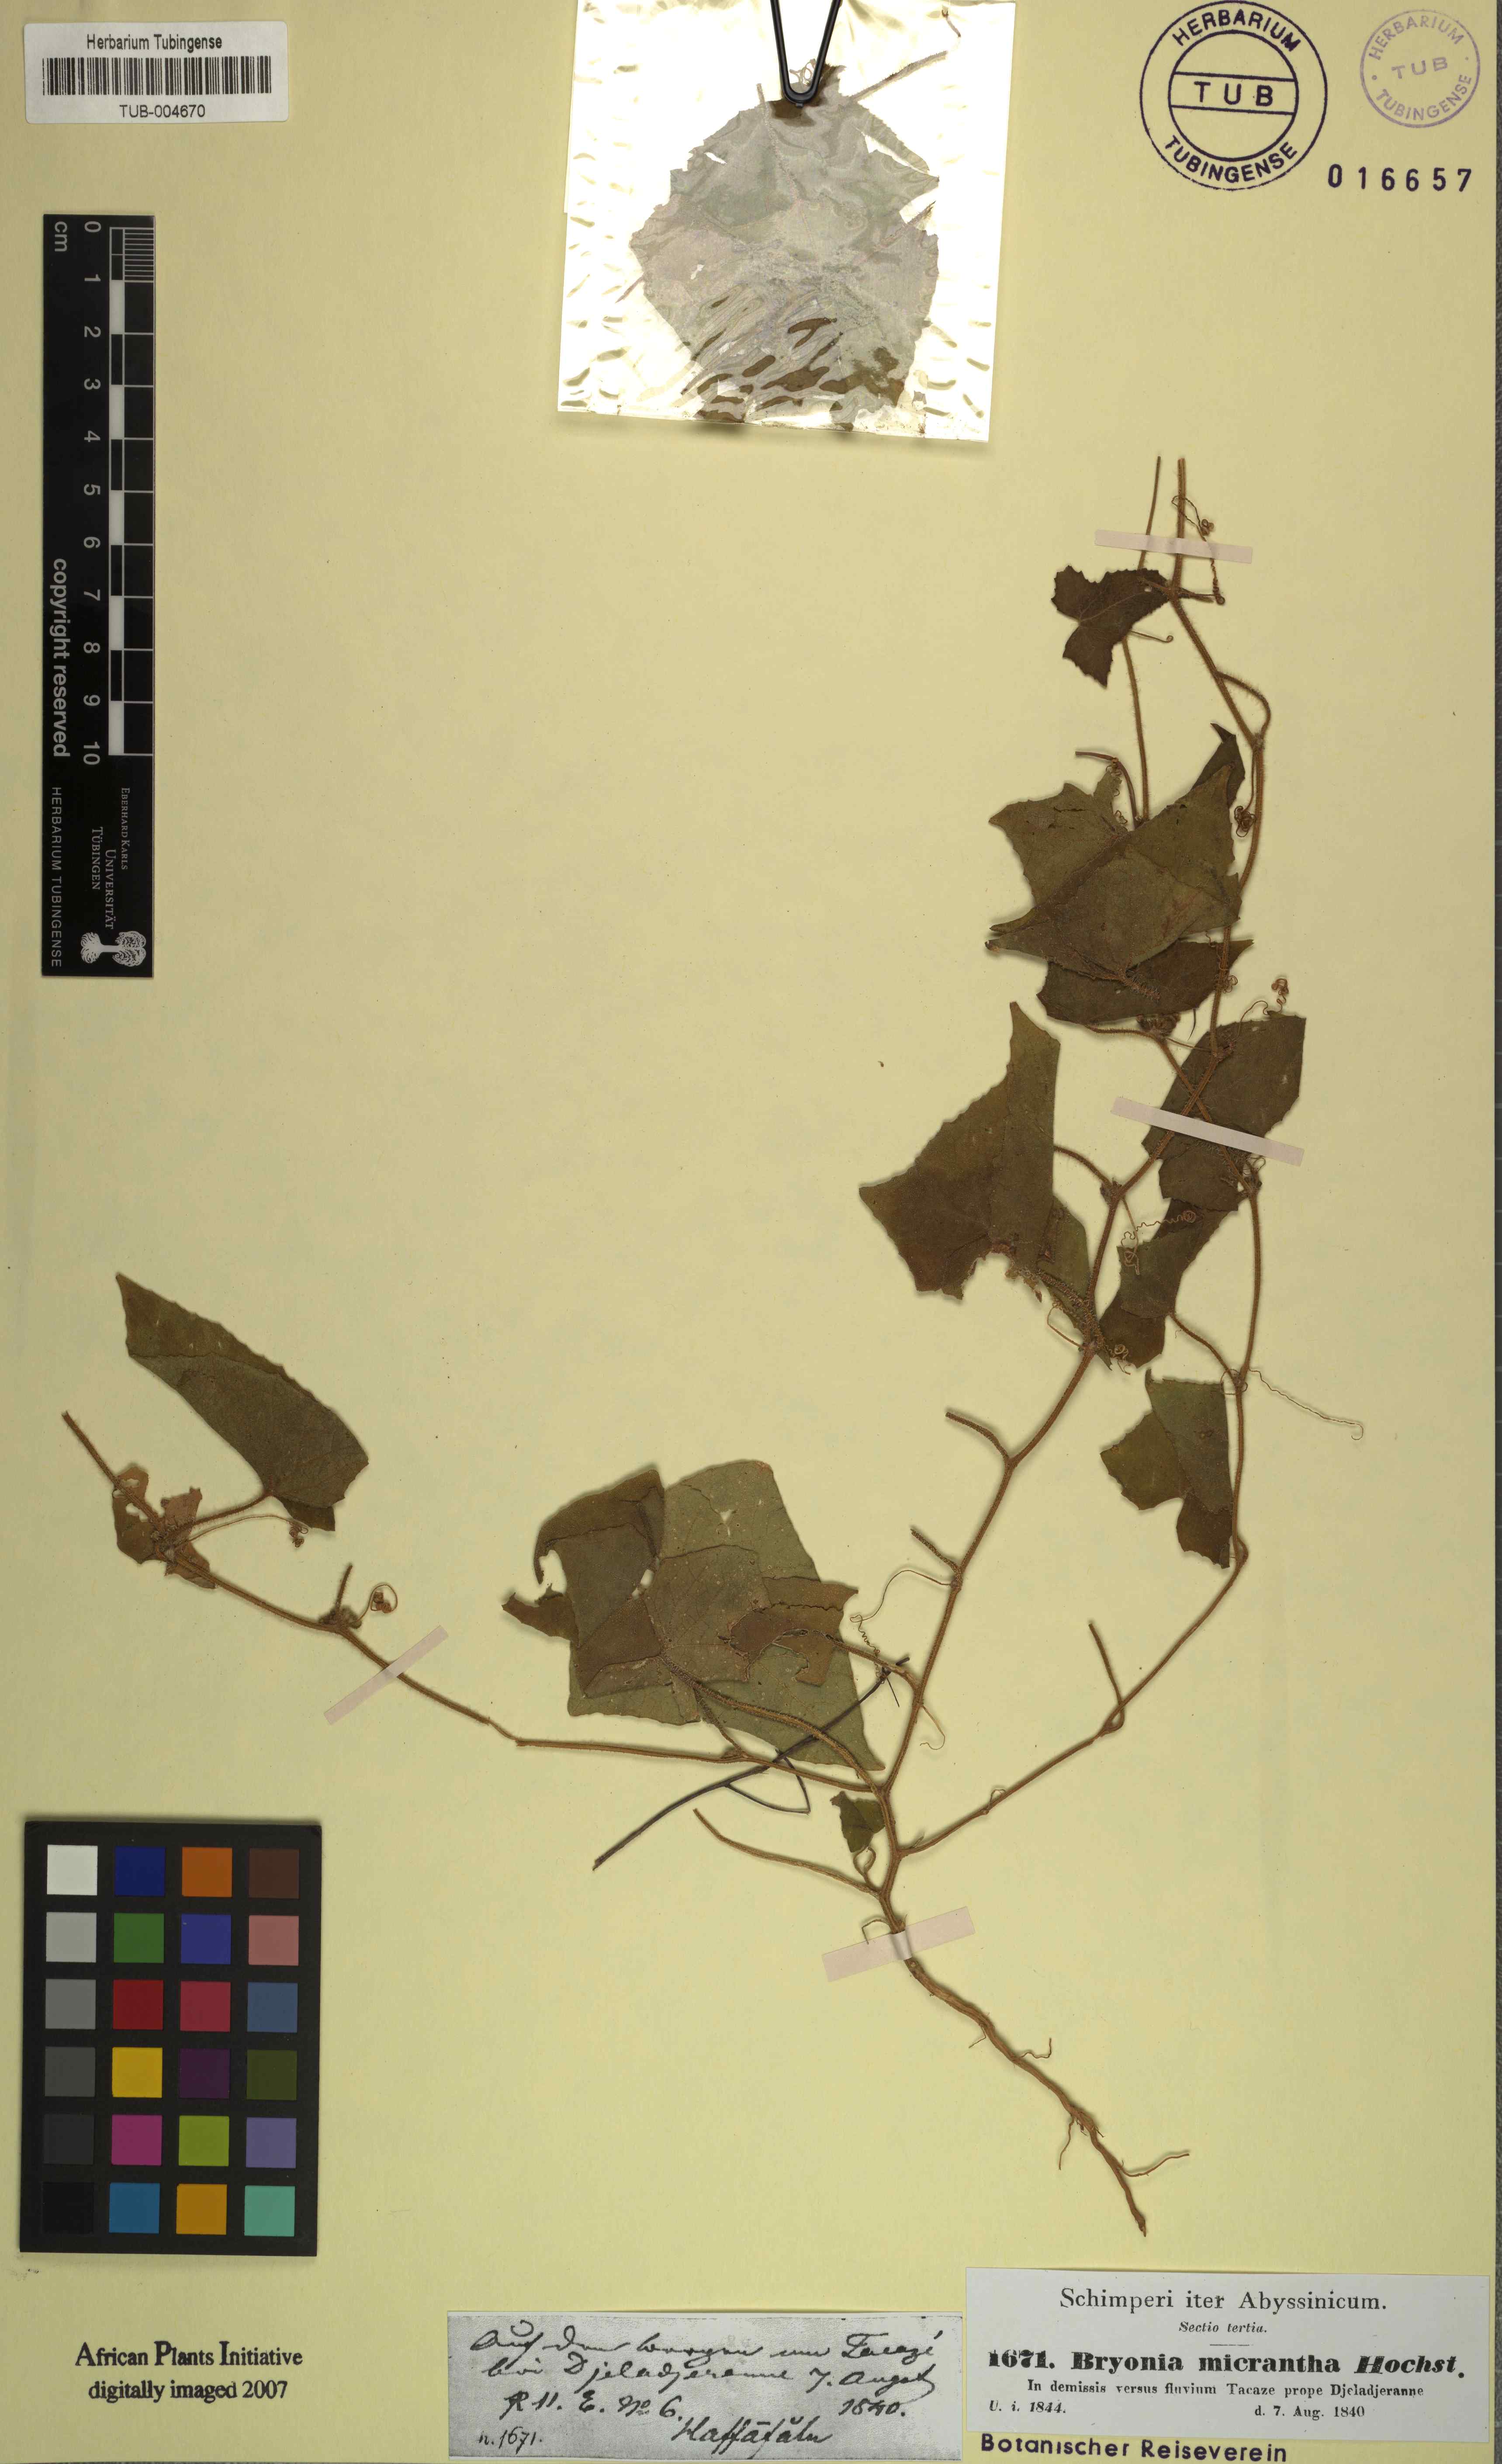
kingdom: Plantae
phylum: Tracheophyta
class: Magnoliopsida
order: Cucurbitales
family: Cucurbitaceae
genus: Cucumis
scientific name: Cucumis maderaspatanus
